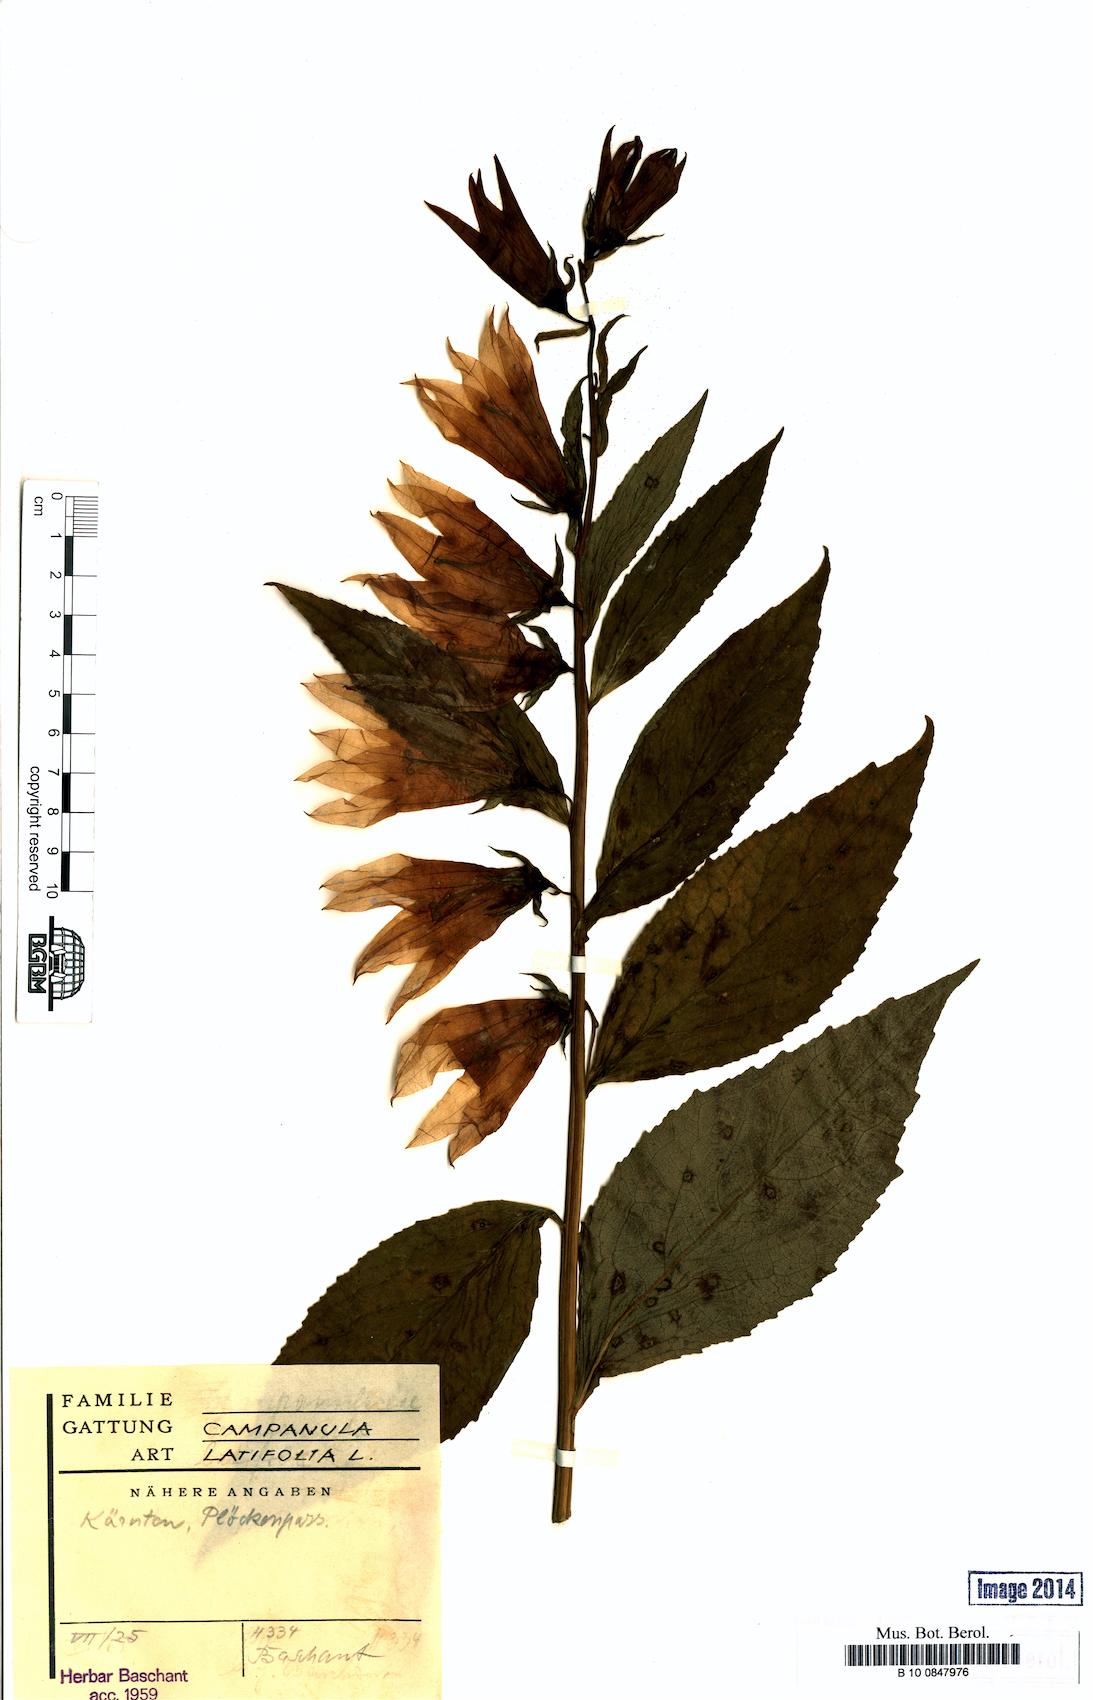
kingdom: Plantae
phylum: Tracheophyta
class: Magnoliopsida
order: Asterales
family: Campanulaceae
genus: Campanula
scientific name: Campanula latifolia
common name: Giant bellflower
